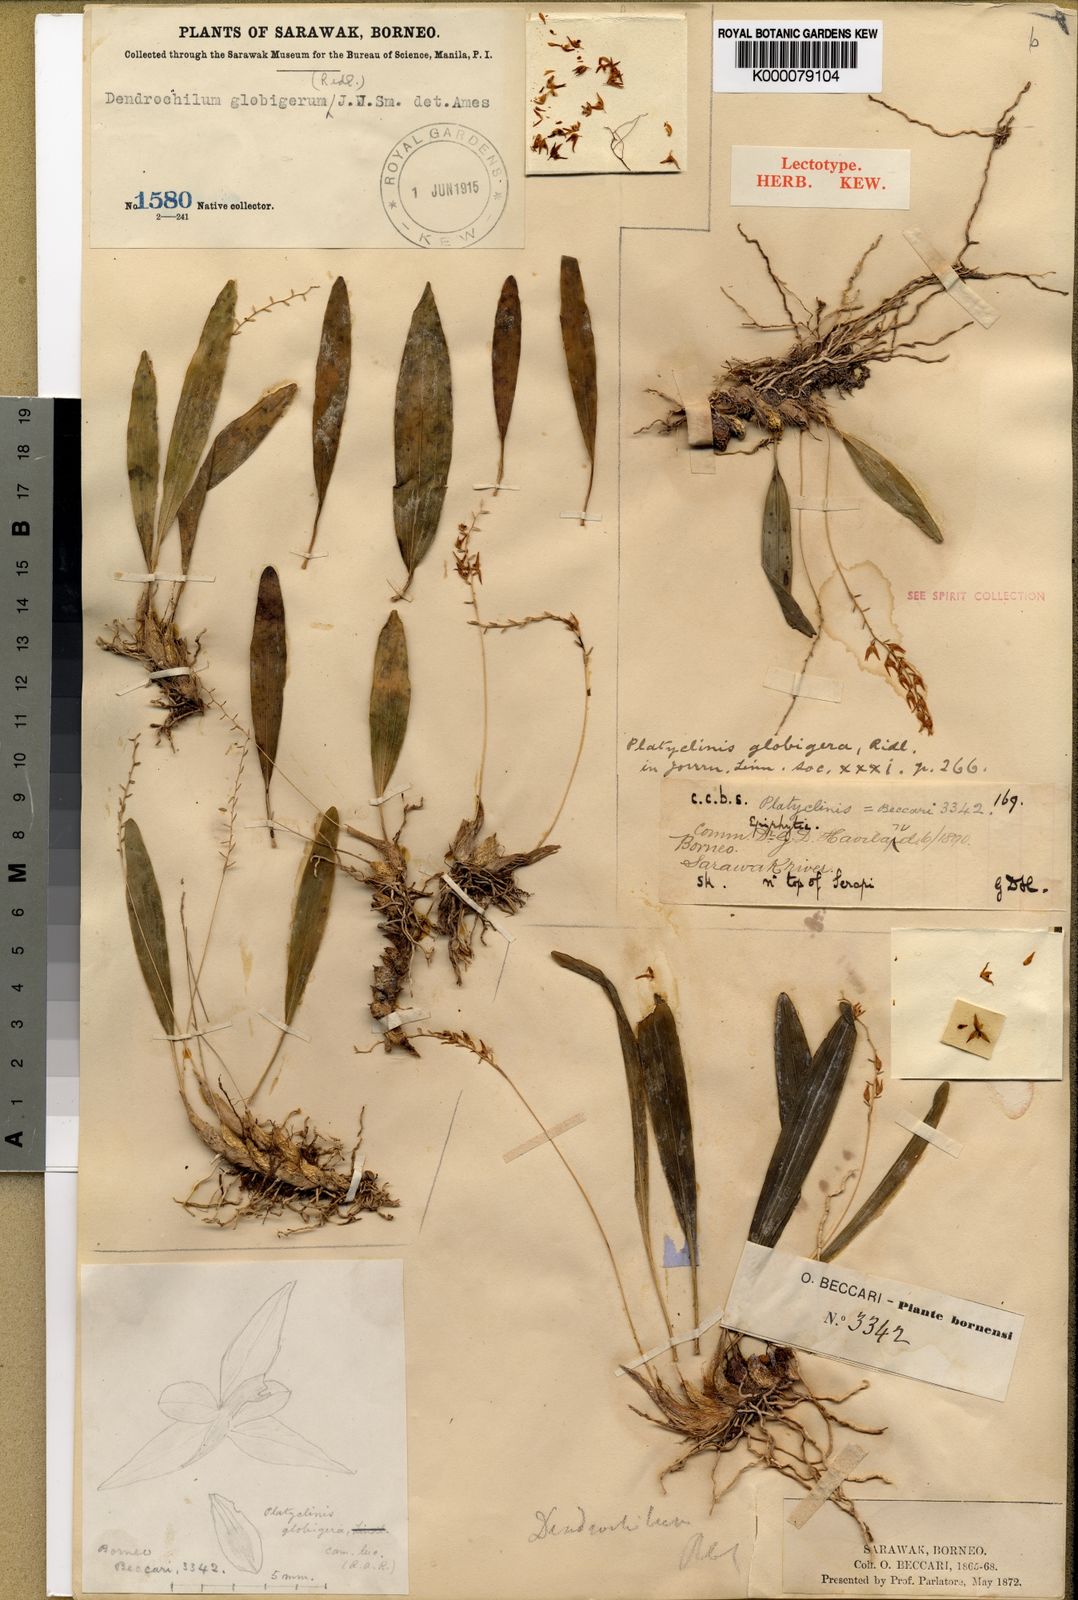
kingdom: Plantae
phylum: Tracheophyta
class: Liliopsida
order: Asparagales
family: Orchidaceae
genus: Coelogyne
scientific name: Coelogyne globigera
